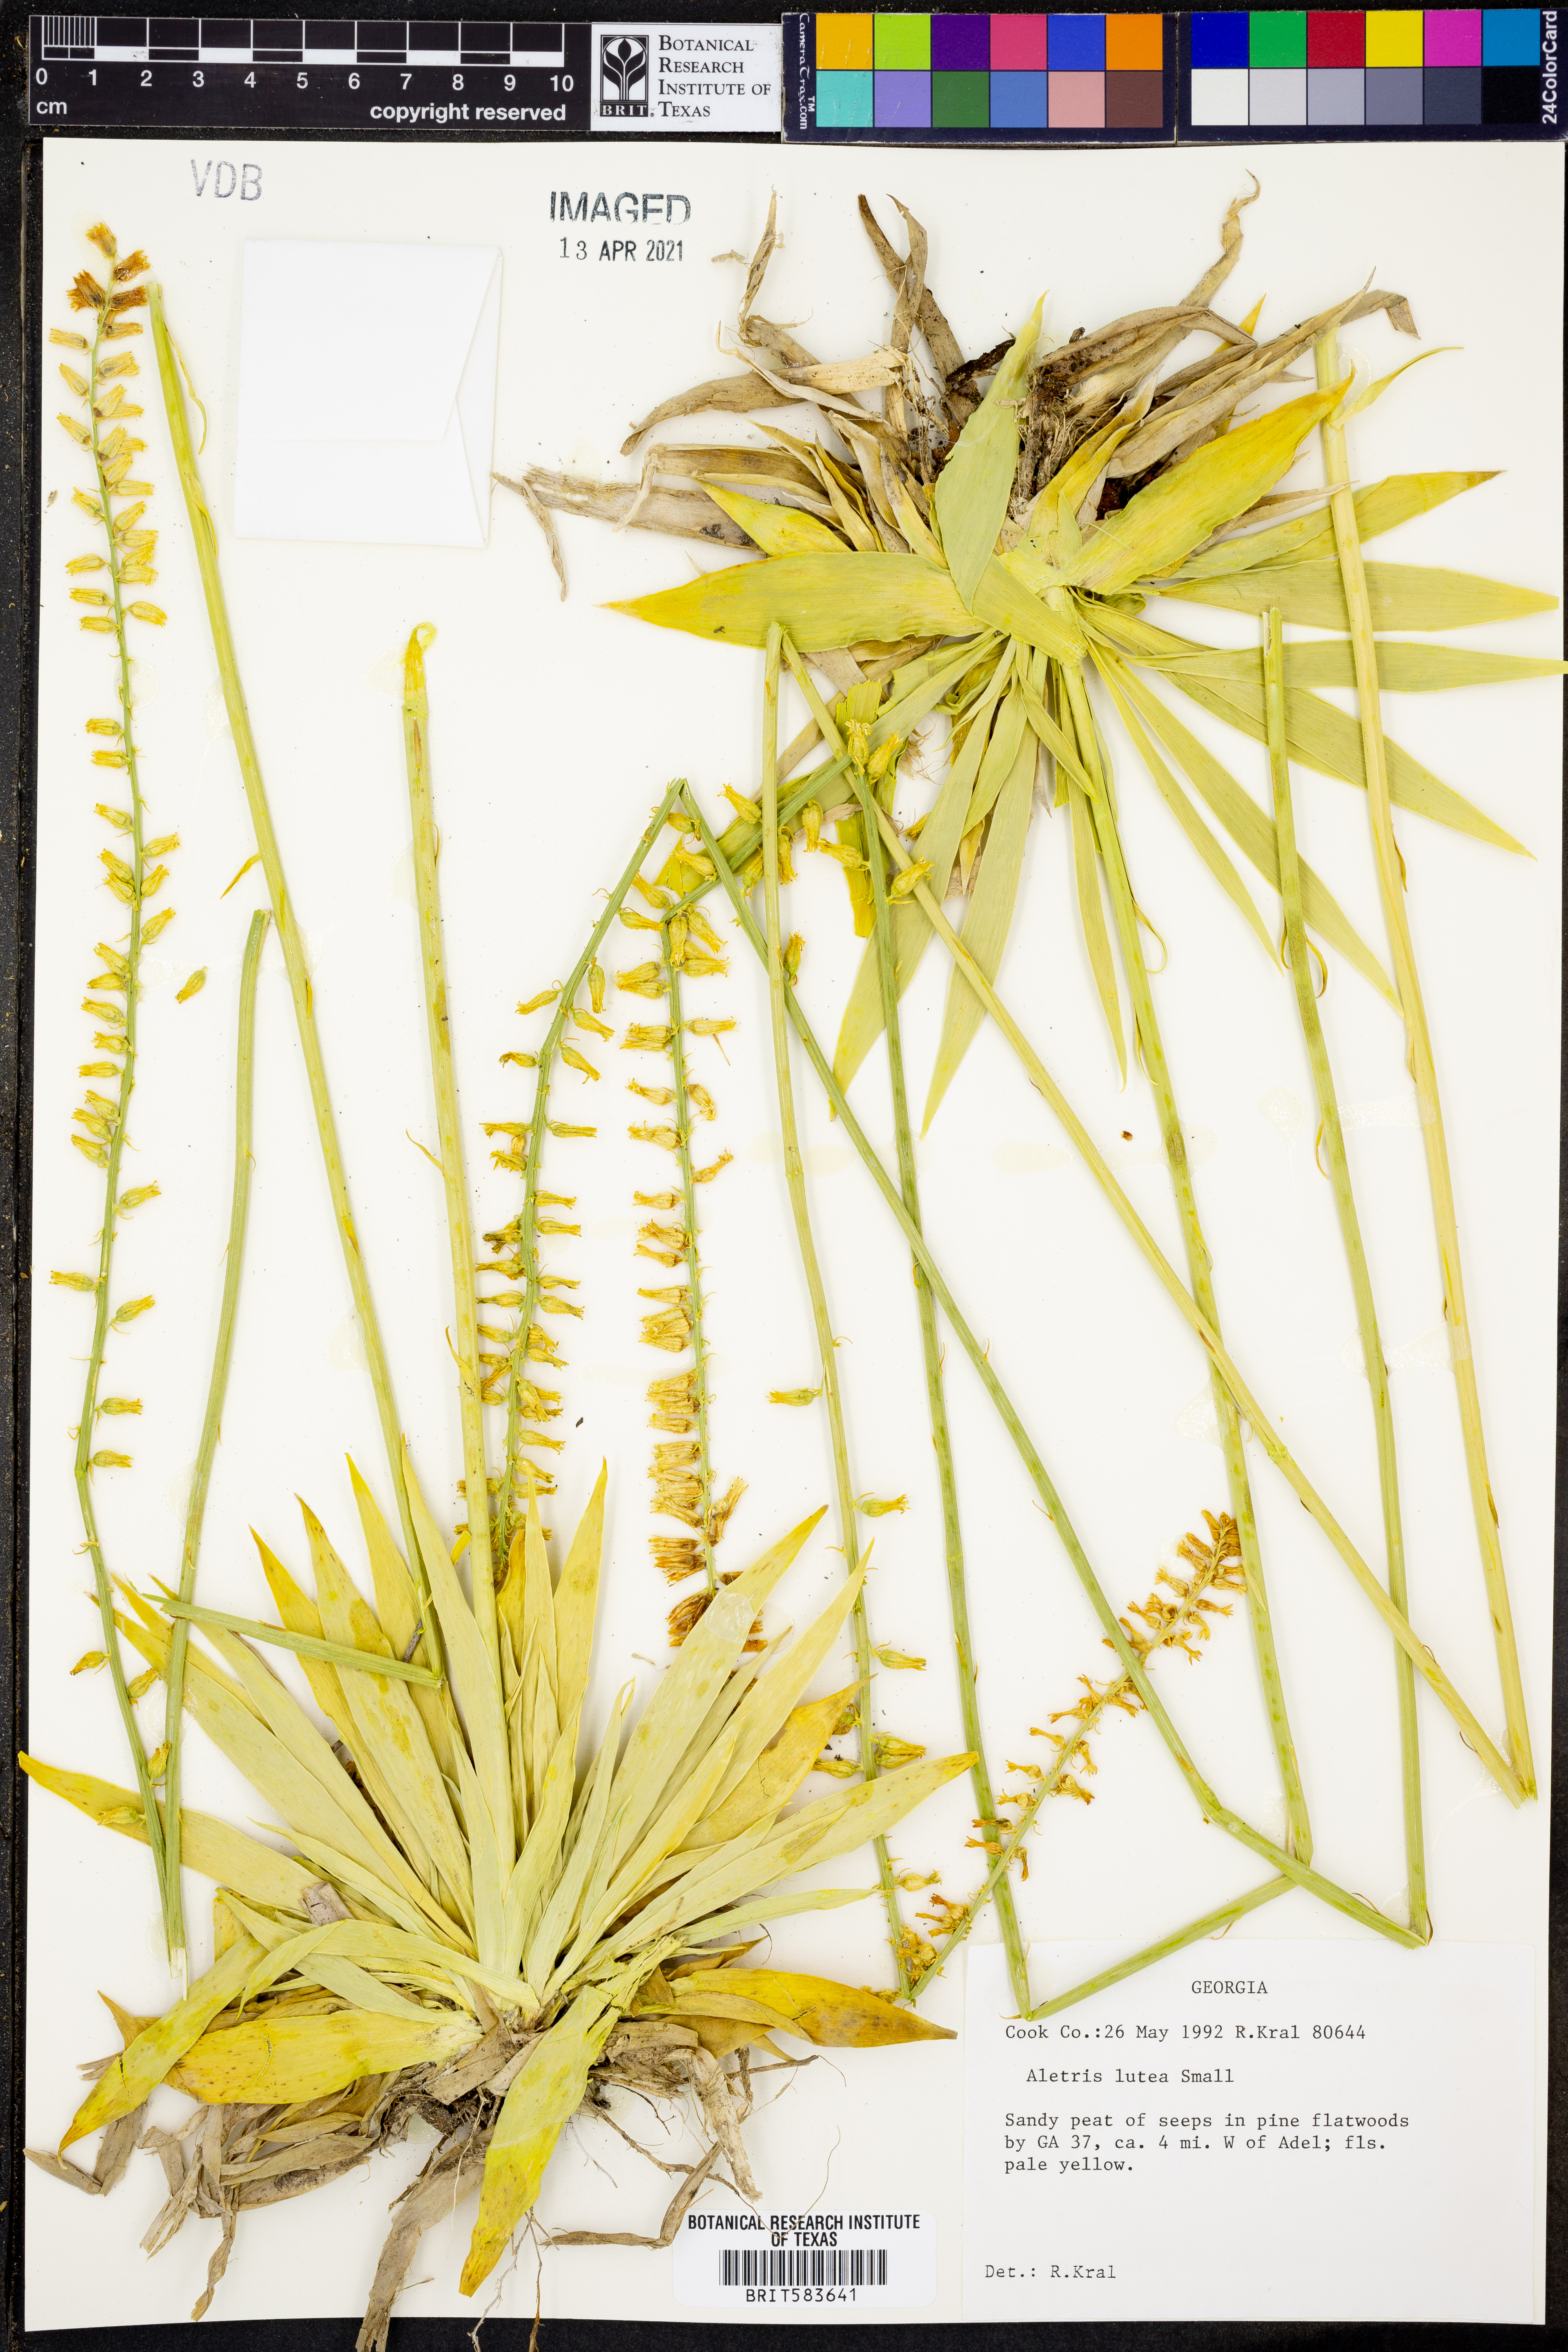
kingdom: Plantae
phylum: Tracheophyta
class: Liliopsida
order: Dioscoreales
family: Nartheciaceae
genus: Aletris
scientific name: Aletris lutea
